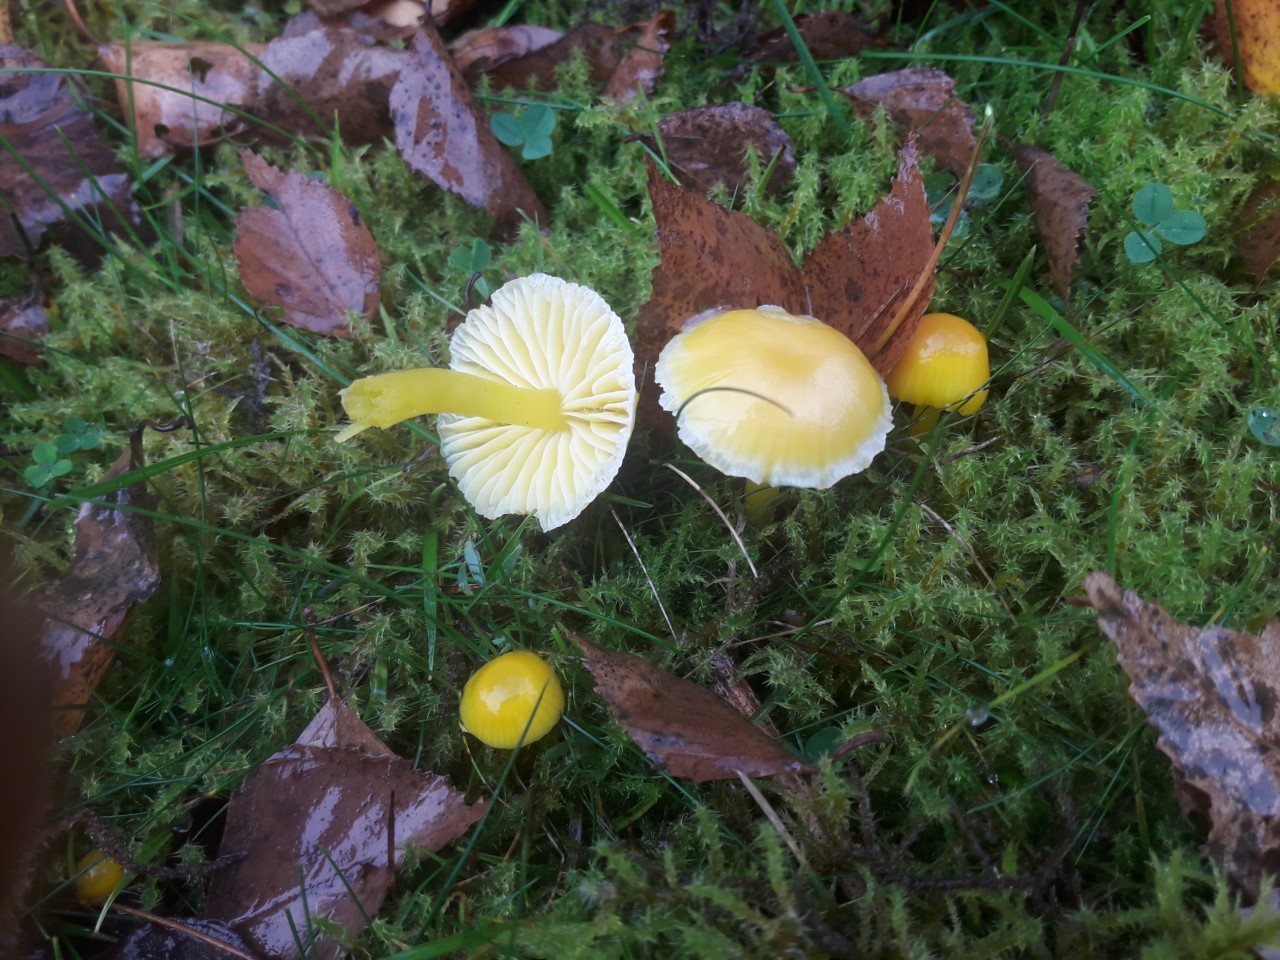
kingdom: Fungi
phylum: Basidiomycota
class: Agaricomycetes
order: Agaricales
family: Hygrophoraceae
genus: Hygrocybe
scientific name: Hygrocybe ceracea
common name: voksgul vokshat
